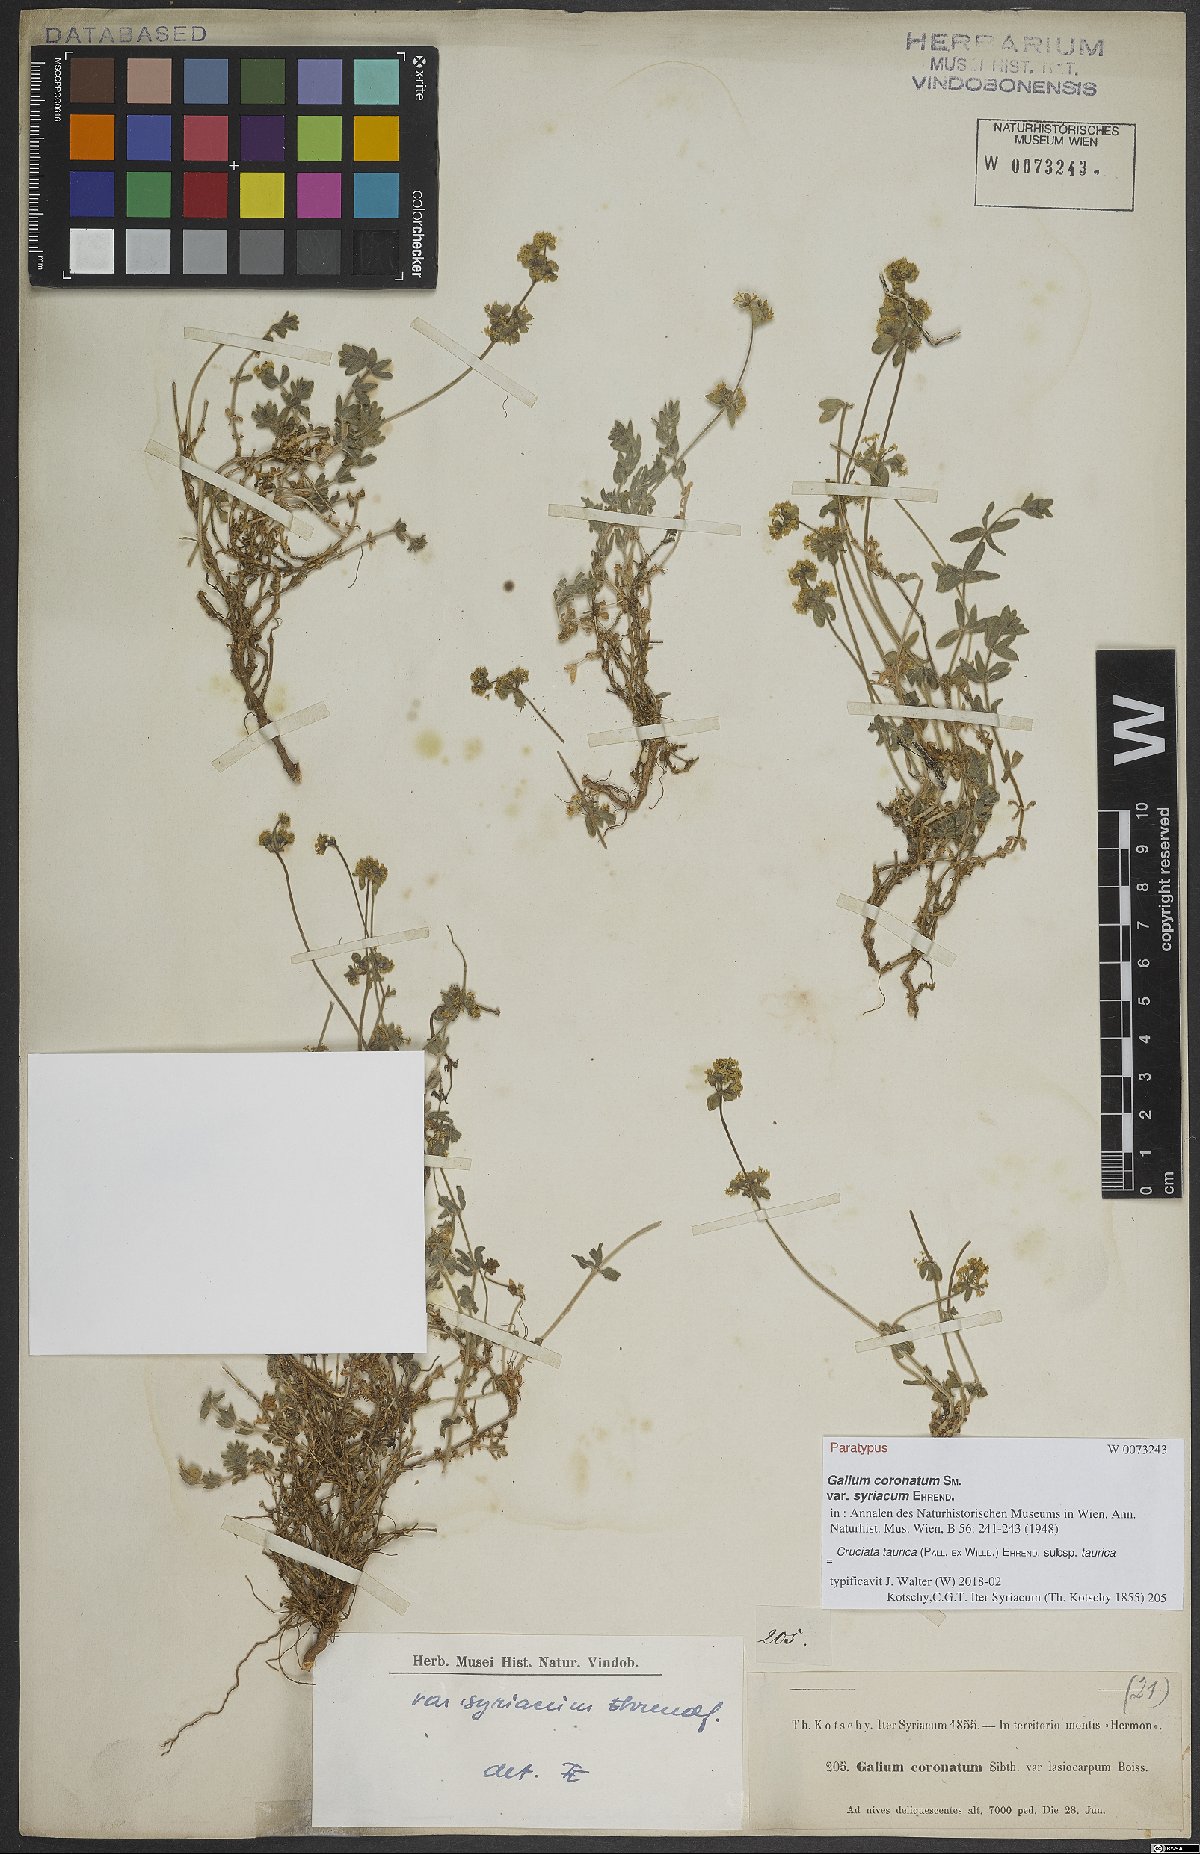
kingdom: Plantae
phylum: Tracheophyta
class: Magnoliopsida
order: Gentianales
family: Rubiaceae
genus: Cruciata
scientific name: Cruciata taurica
